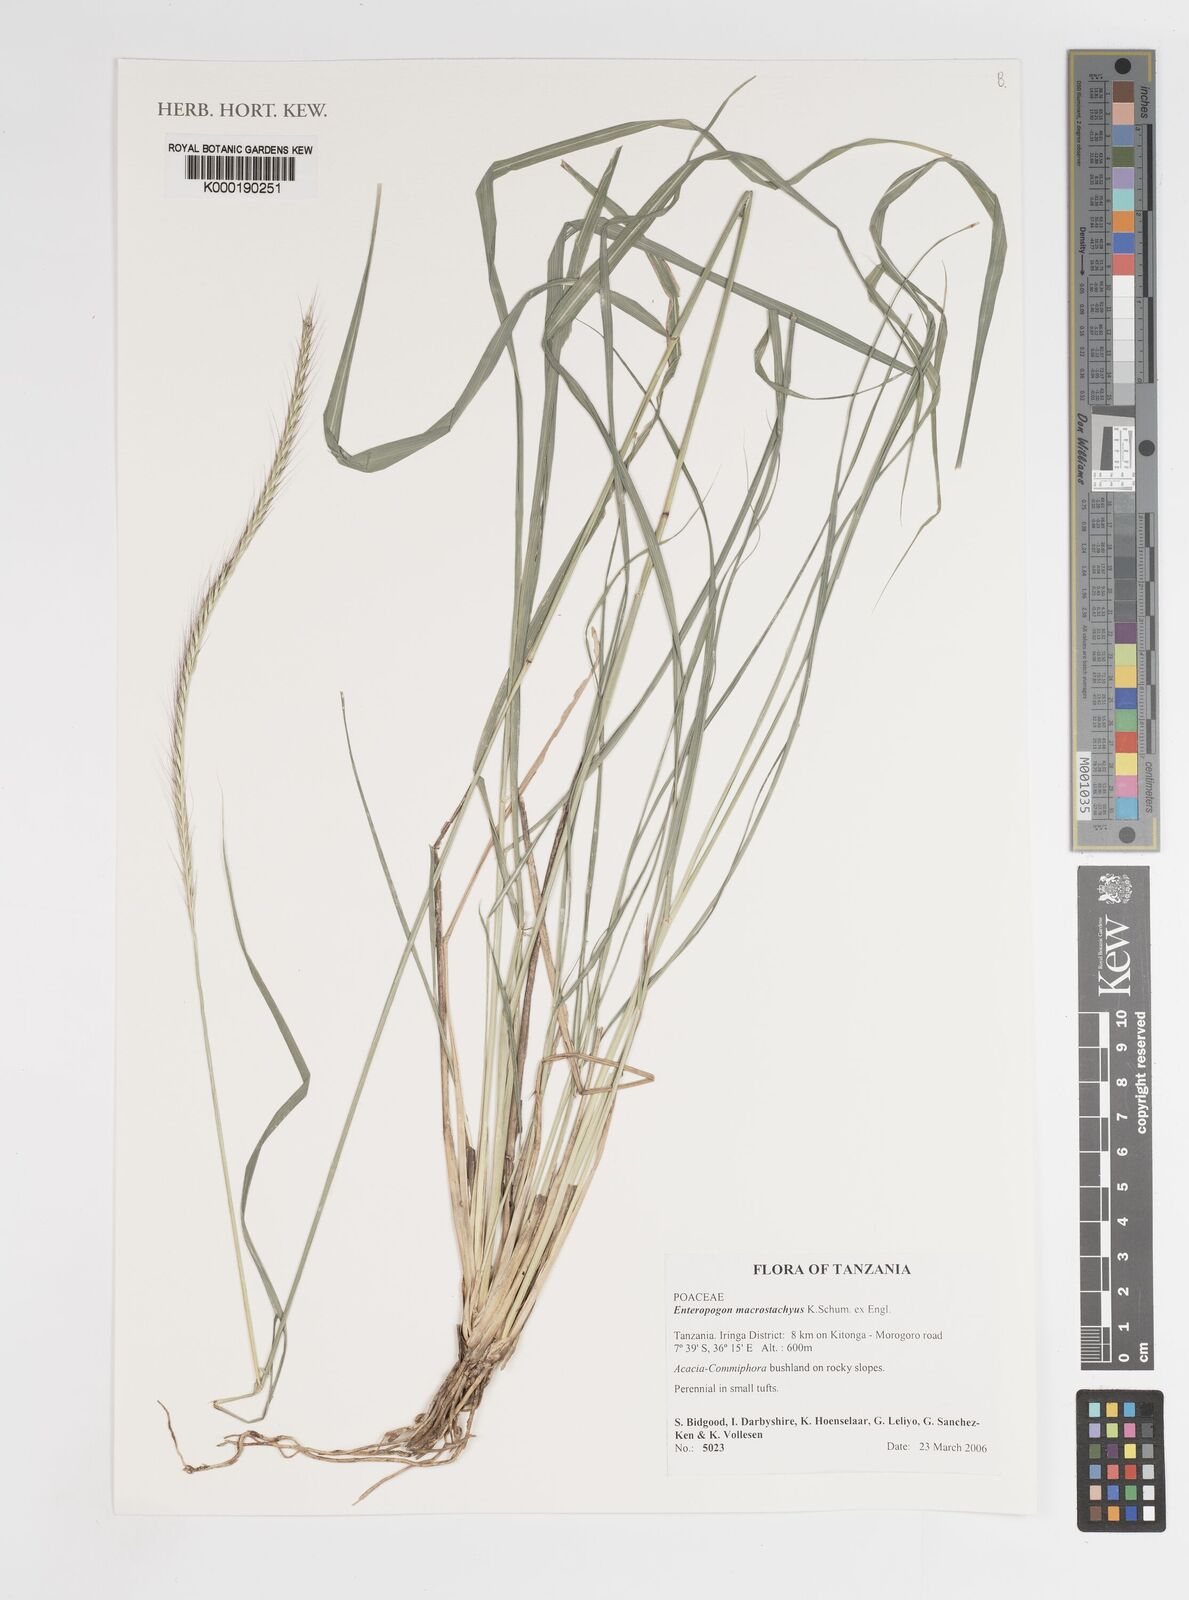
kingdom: Plantae
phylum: Tracheophyta
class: Liliopsida
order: Poales
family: Poaceae
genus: Enteropogon
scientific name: Enteropogon
